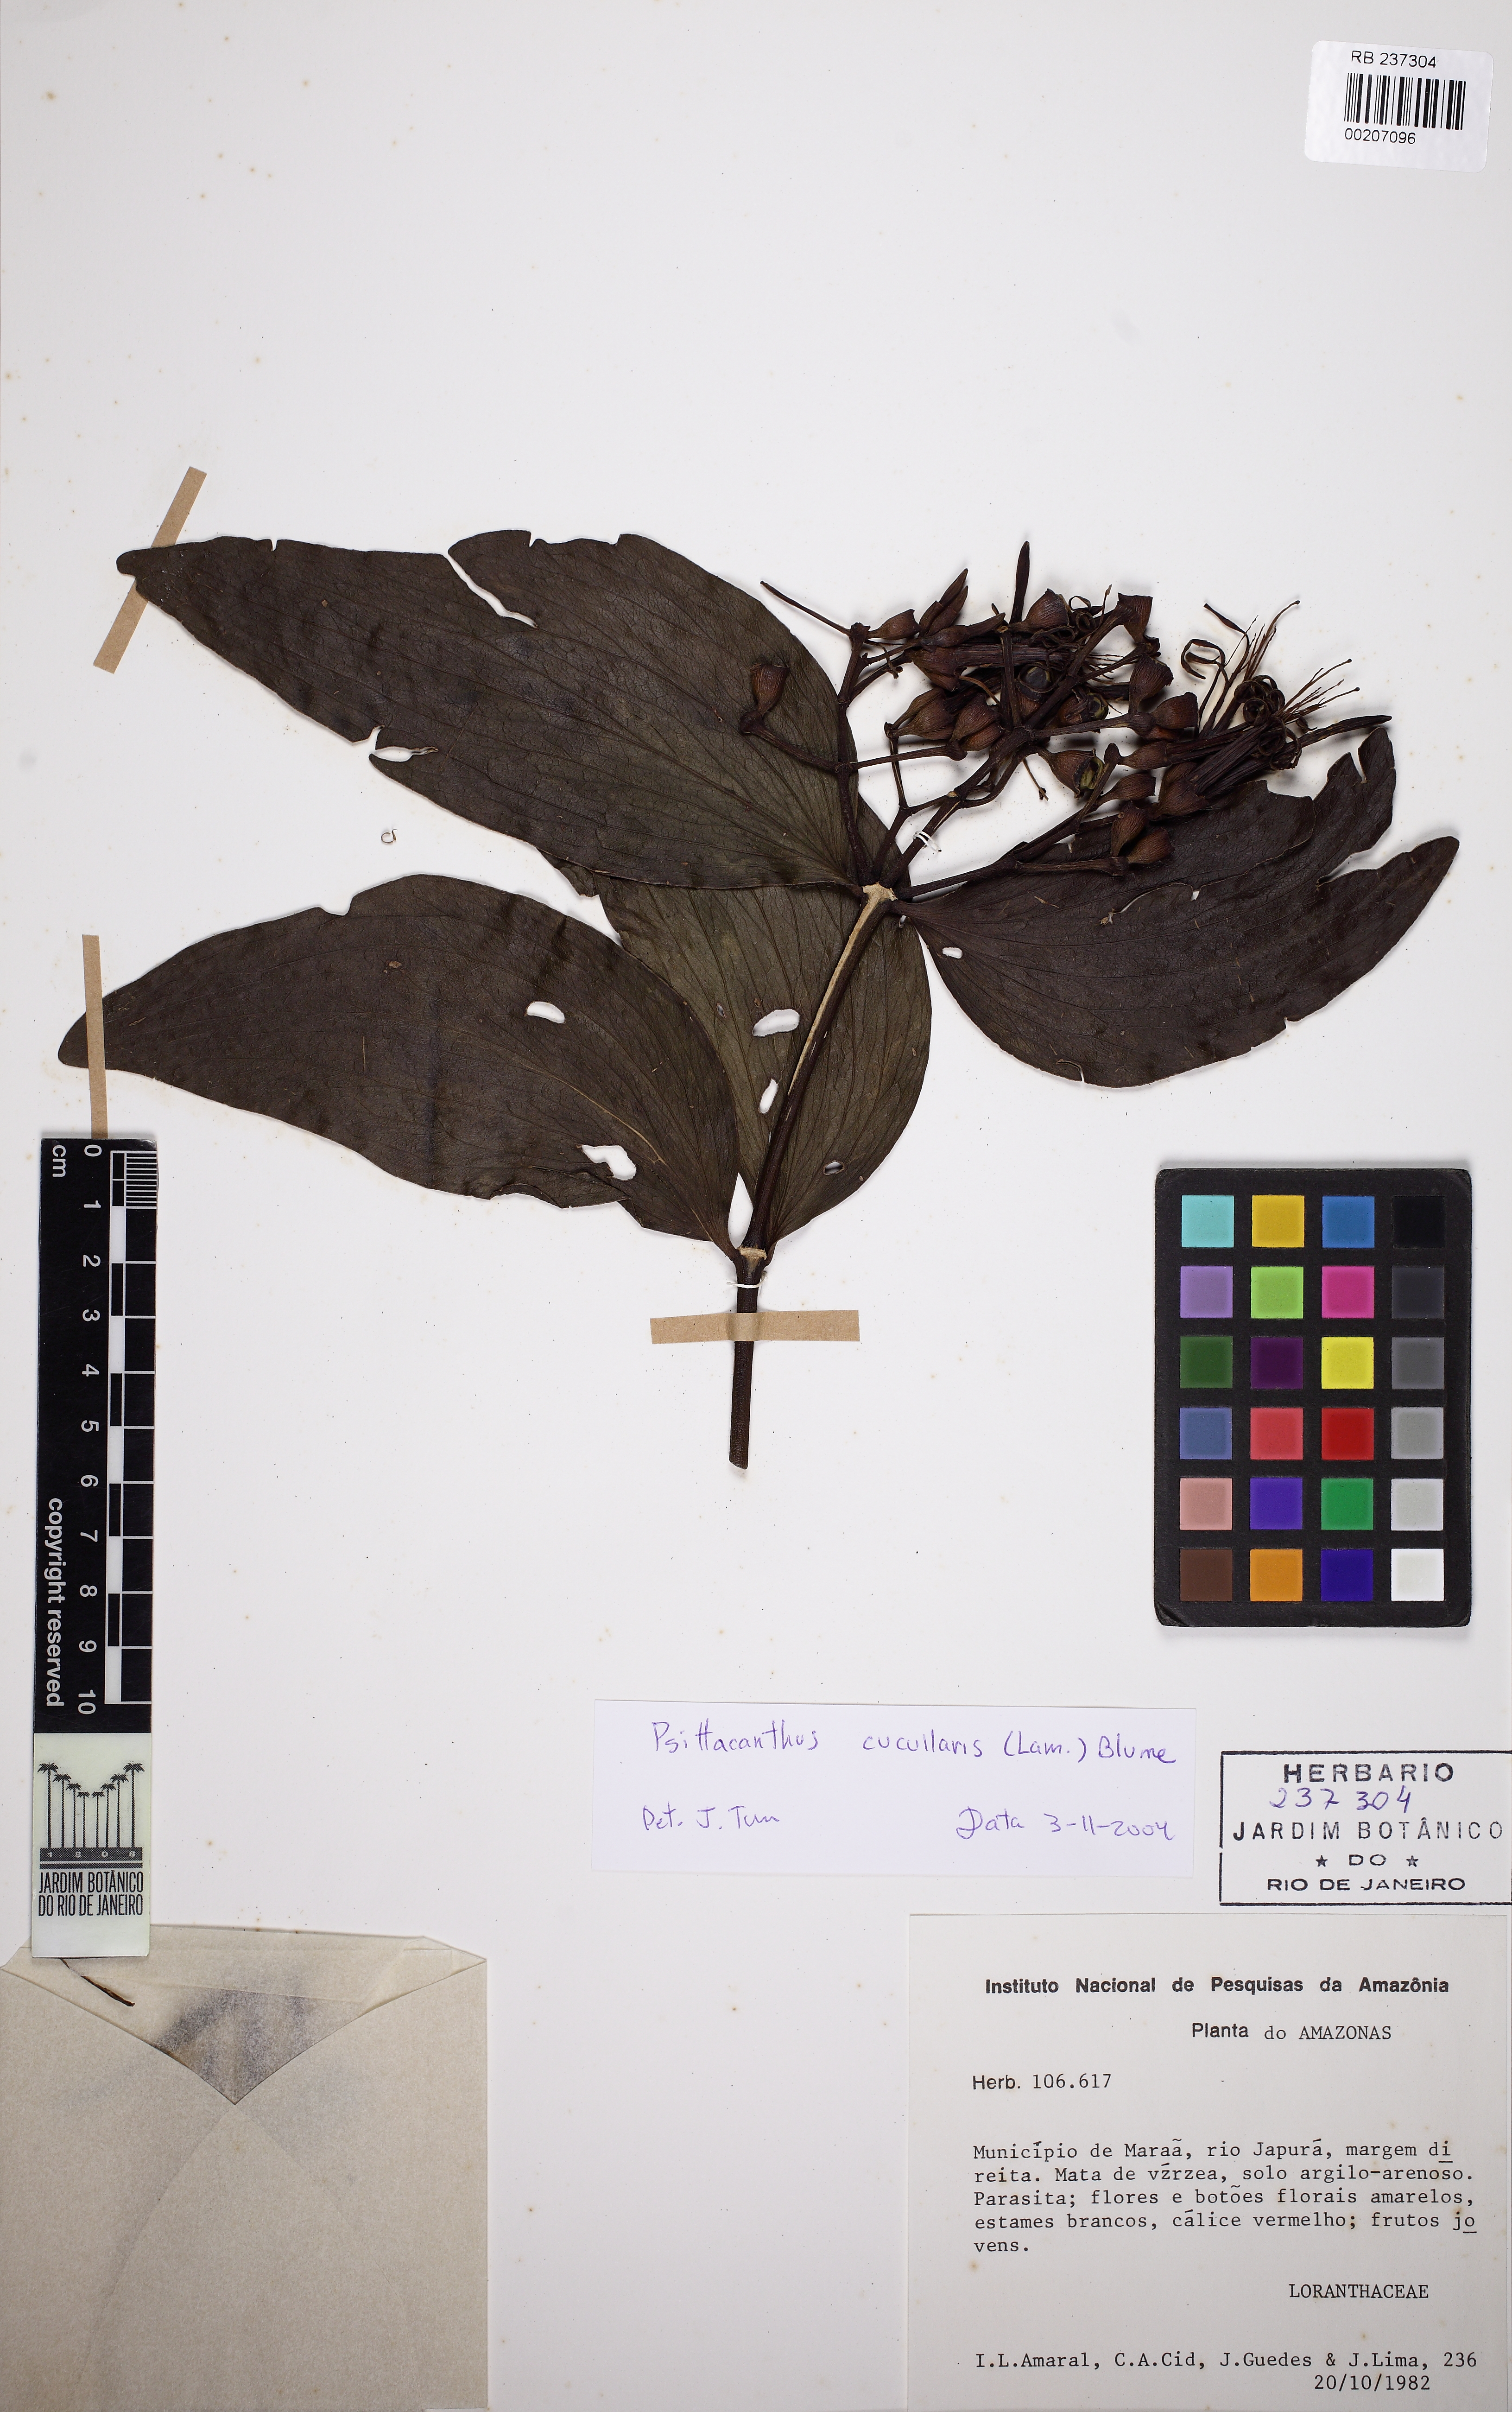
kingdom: Plantae
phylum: Tracheophyta
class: Magnoliopsida
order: Santalales
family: Loranthaceae
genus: Psittacanthus
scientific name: Psittacanthus cucullaris
